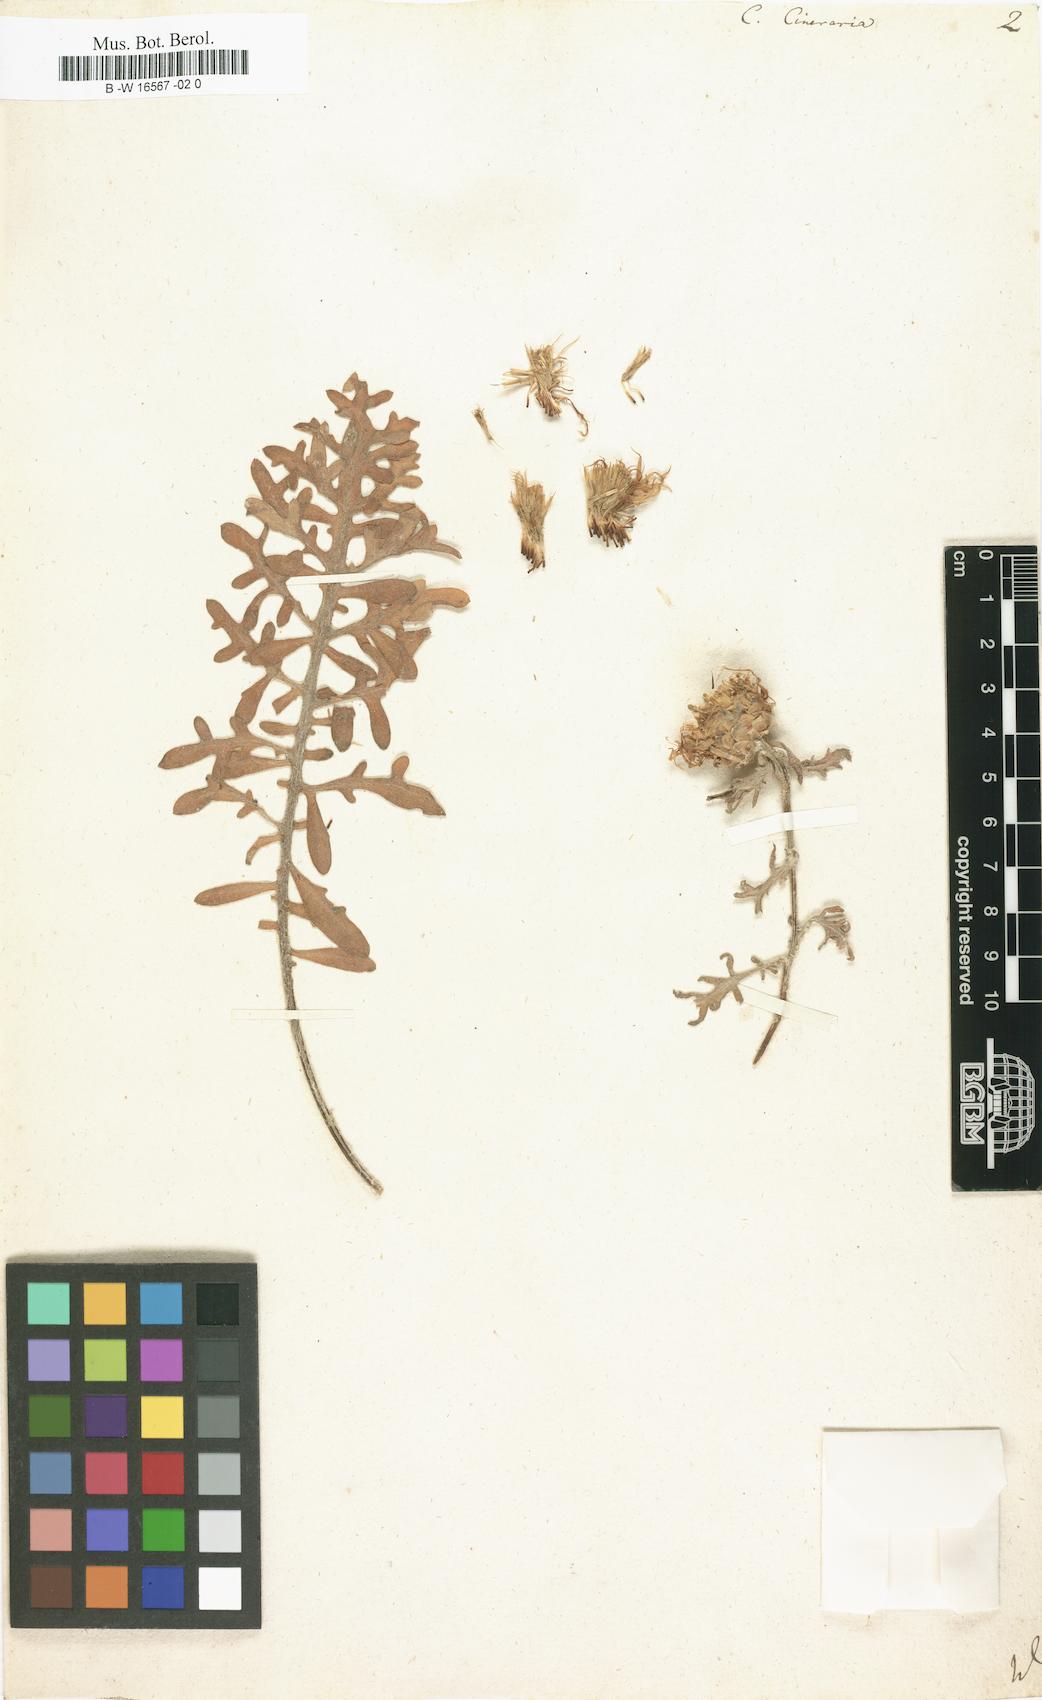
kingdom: Plantae
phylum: Tracheophyta
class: Magnoliopsida
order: Asterales
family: Asteraceae
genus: Centaurea
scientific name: Centaurea cineraria
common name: Dusty miller
